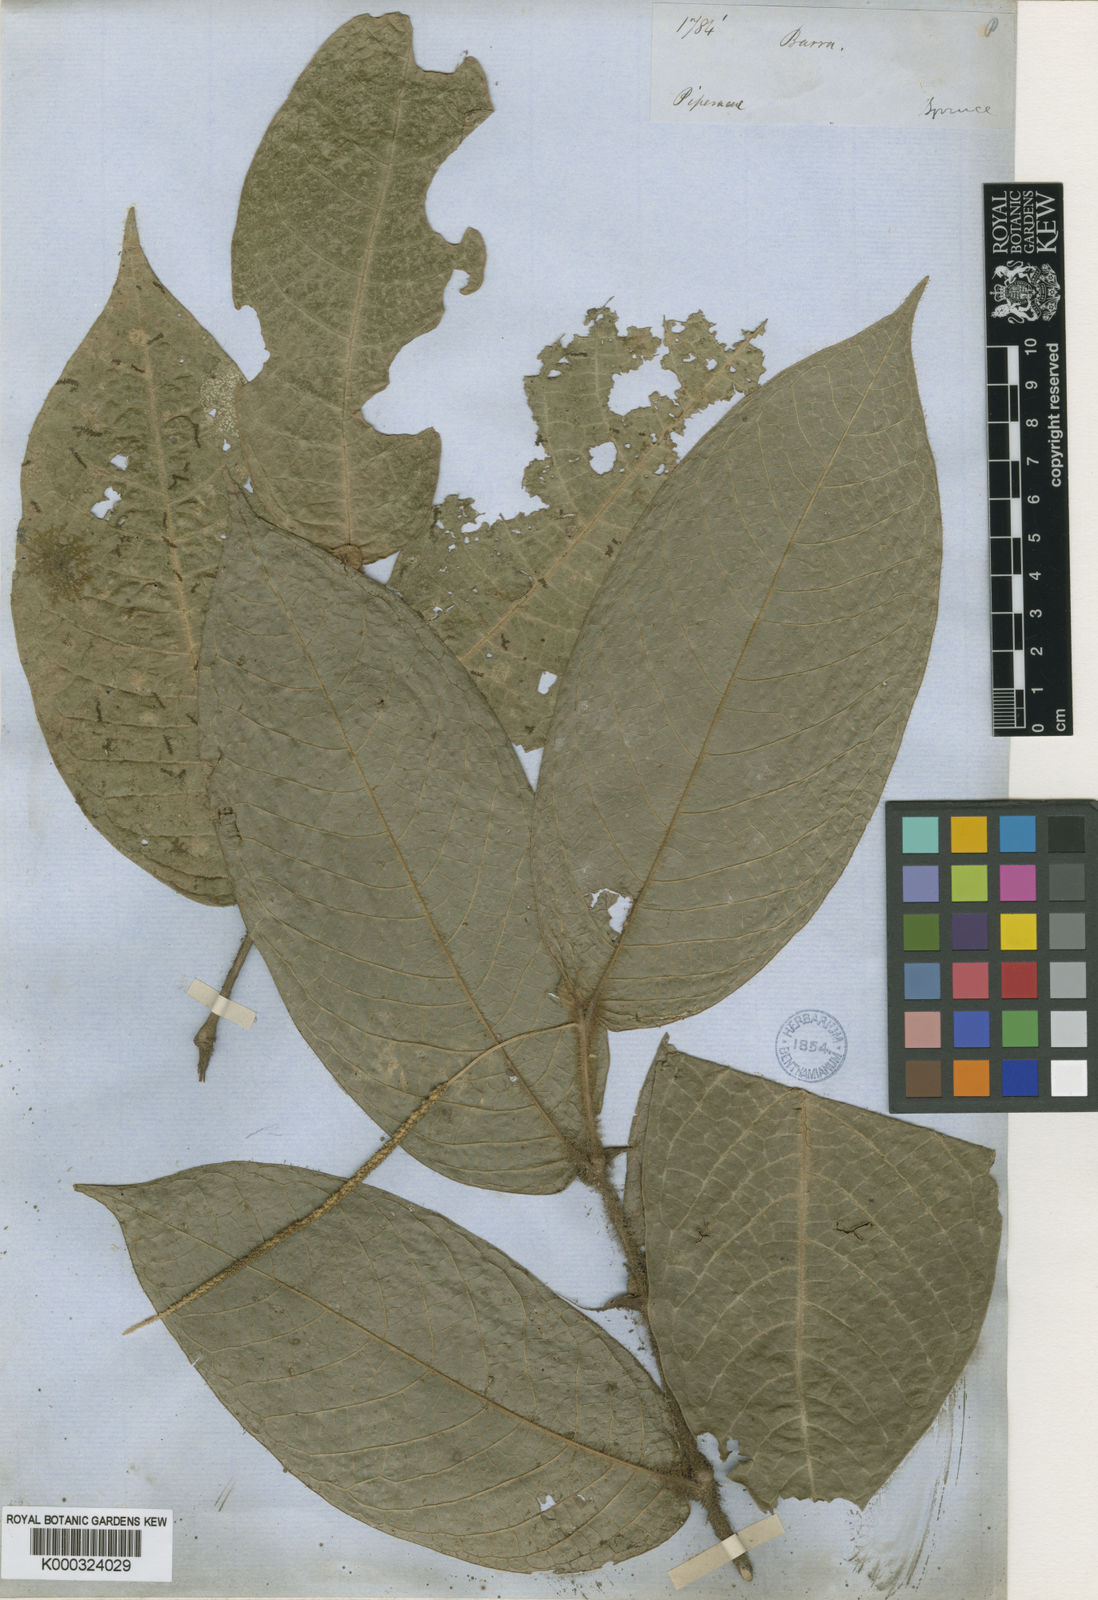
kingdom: Plantae
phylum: Tracheophyta
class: Magnoliopsida
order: Piperales
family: Piperaceae
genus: Piper
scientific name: Piper francovilleanum
